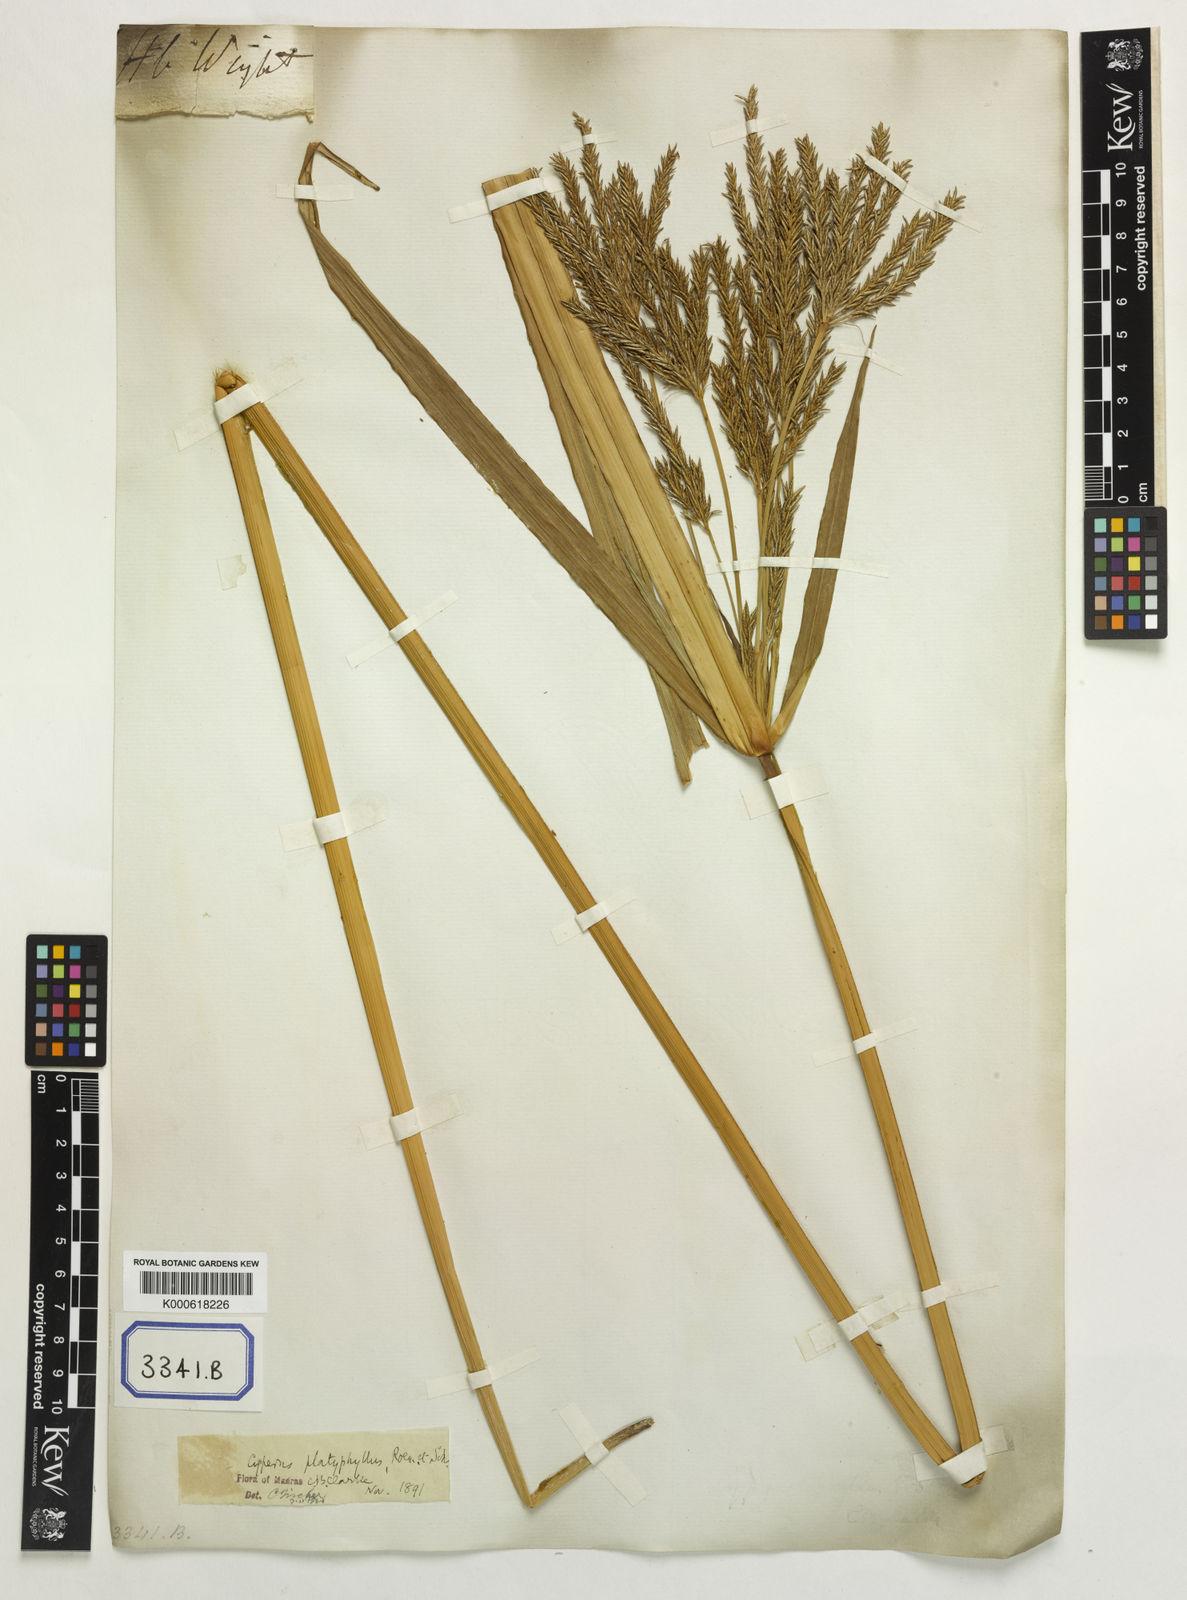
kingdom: Plantae
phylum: Tracheophyta
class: Liliopsida
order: Poales
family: Cyperaceae
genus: Cyperus
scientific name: Cyperus platyphyllus
